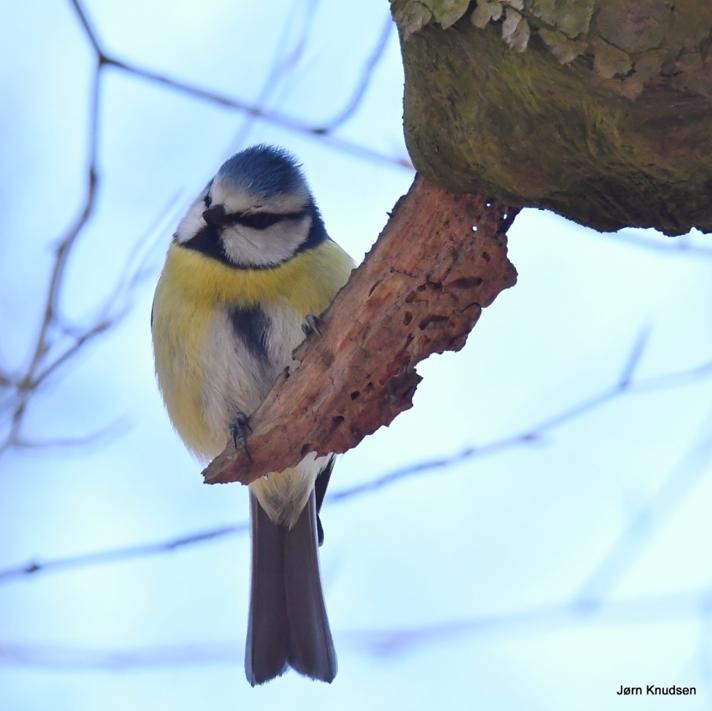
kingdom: Animalia
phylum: Chordata
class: Aves
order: Passeriformes
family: Paridae
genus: Cyanistes
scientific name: Cyanistes caeruleus
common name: Blåmejse
